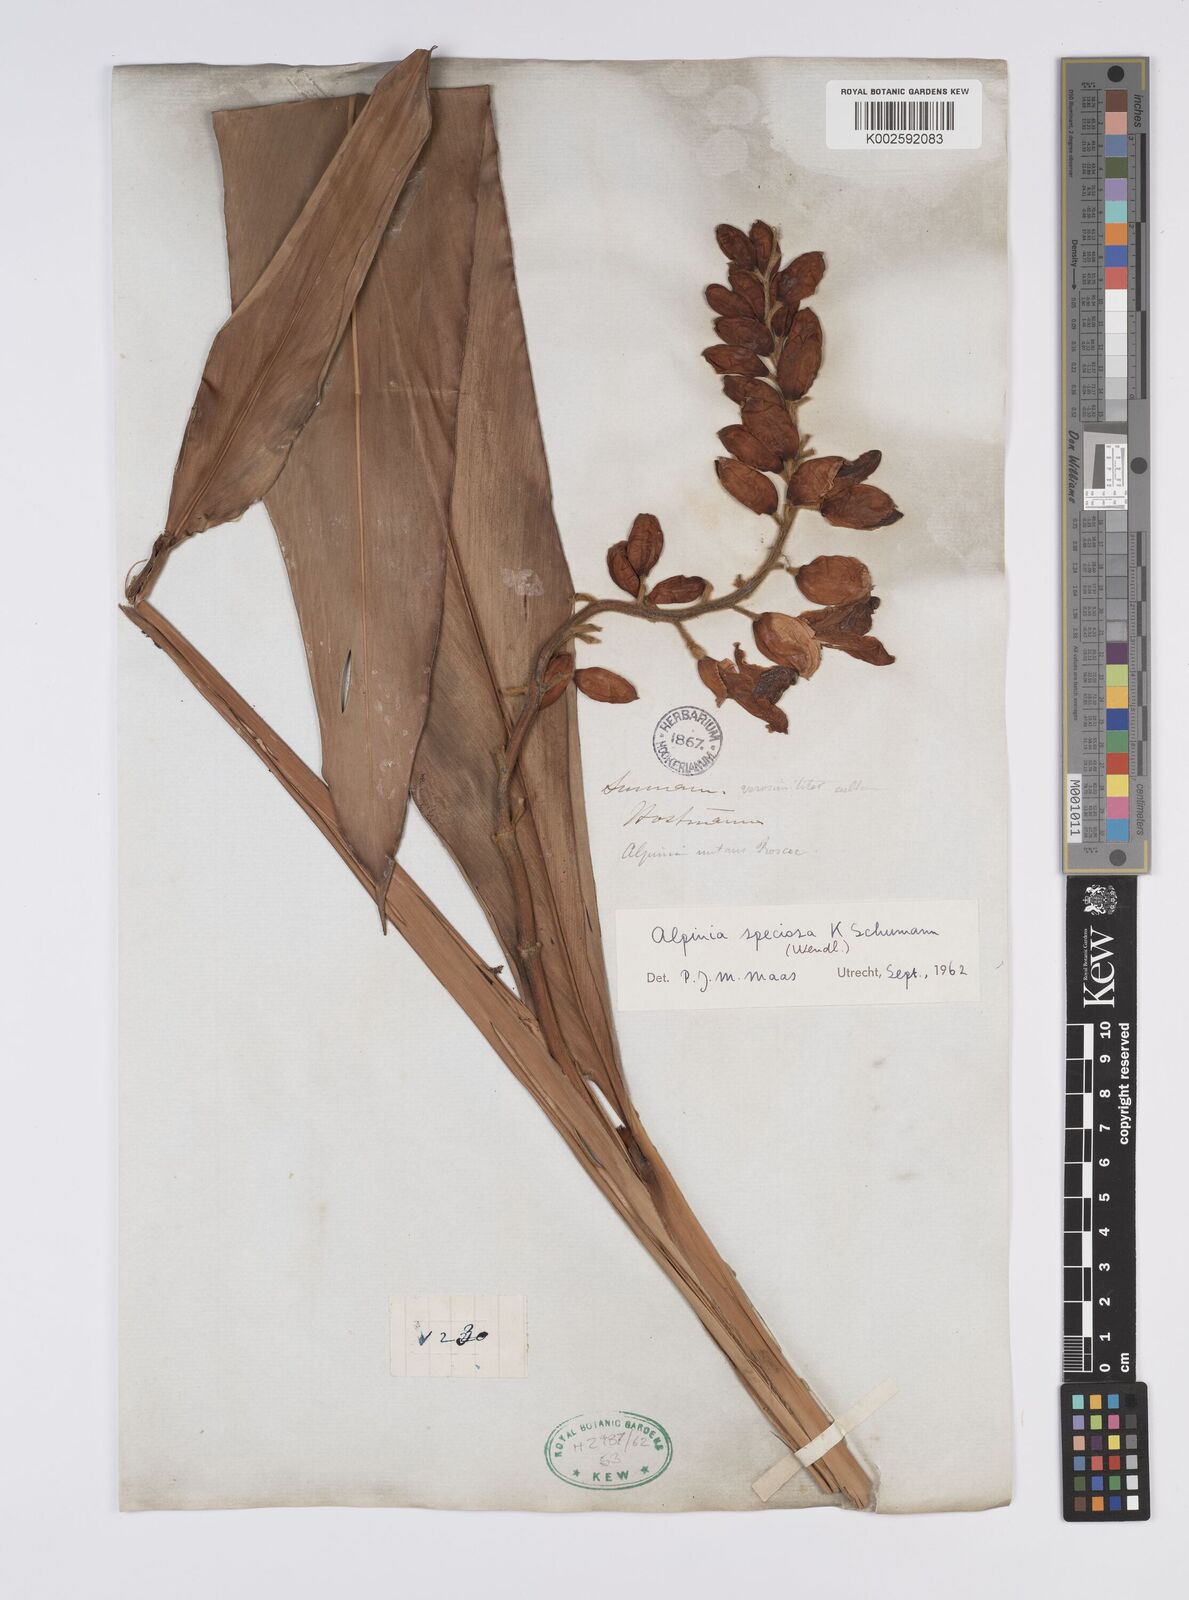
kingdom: Plantae
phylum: Tracheophyta
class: Liliopsida
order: Zingiberales
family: Zingiberaceae
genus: Alpinia
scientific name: Alpinia zerumbet
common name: Shellplant
